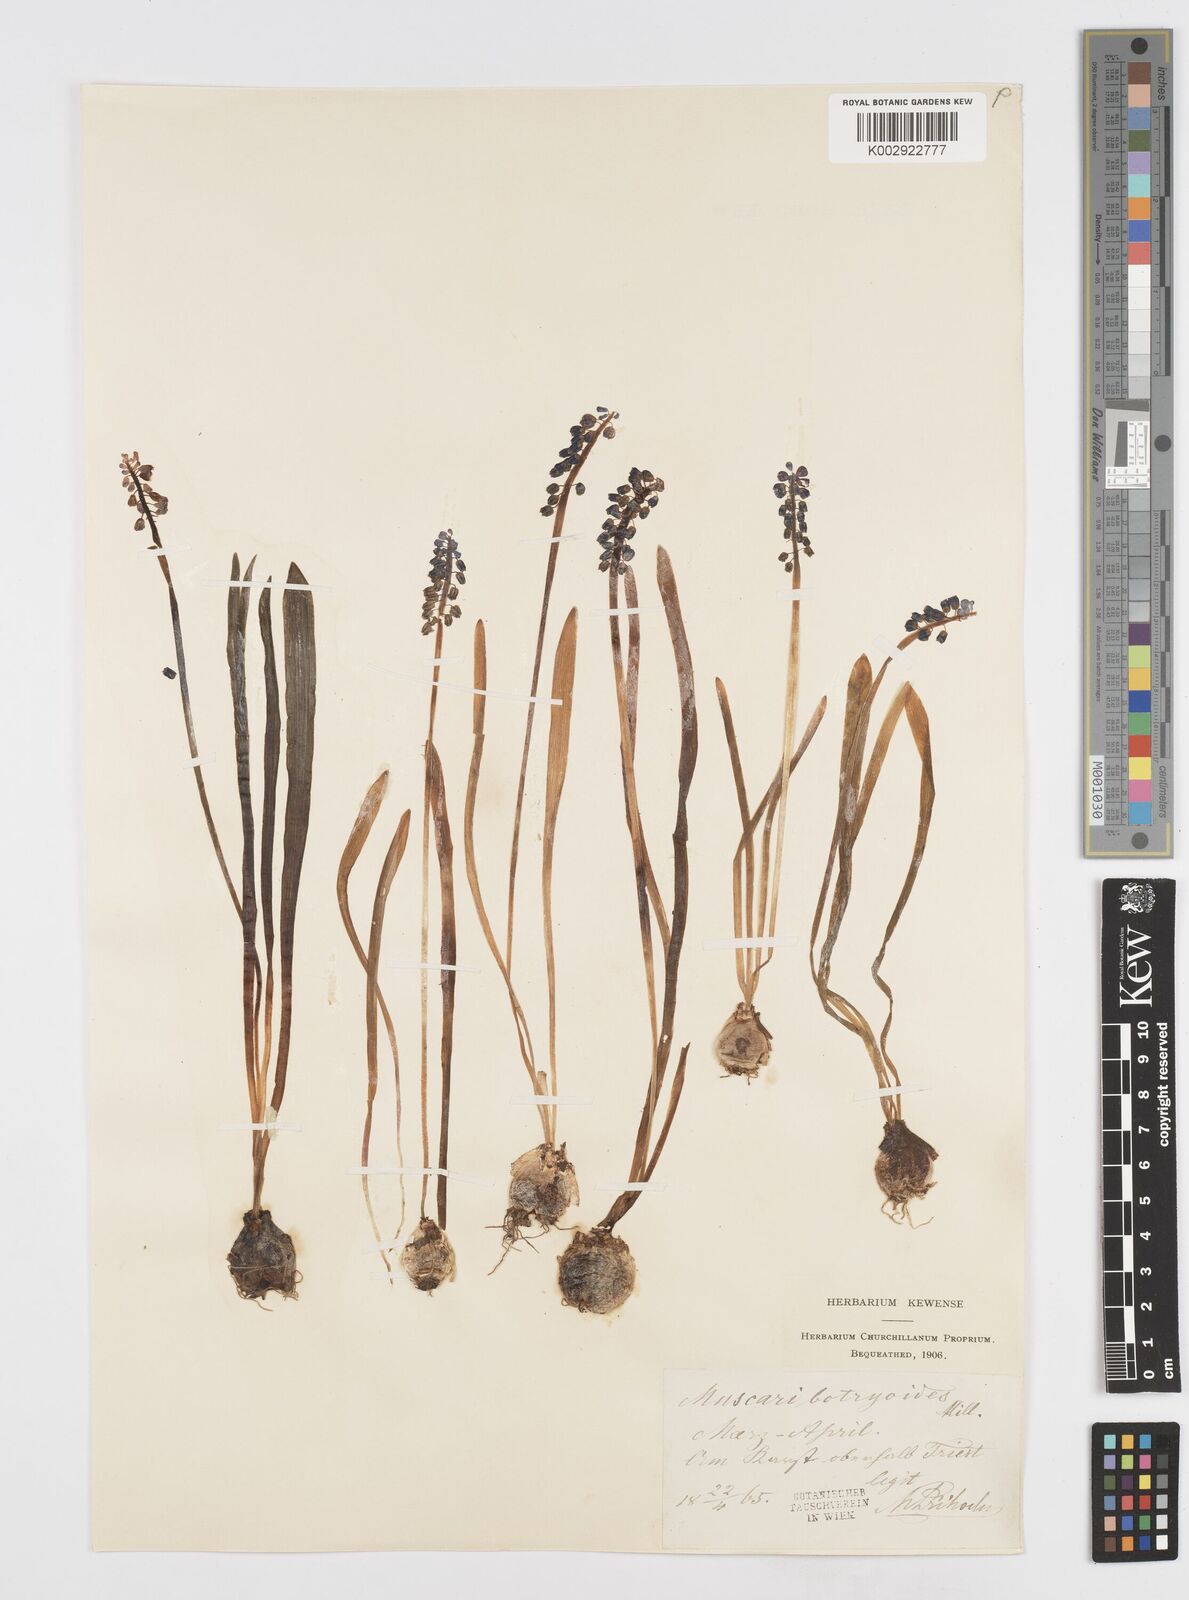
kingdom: Plantae
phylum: Tracheophyta
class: Liliopsida
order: Asparagales
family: Asparagaceae
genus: Muscari
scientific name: Muscari botryoides
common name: Compact grape-hyacinth
